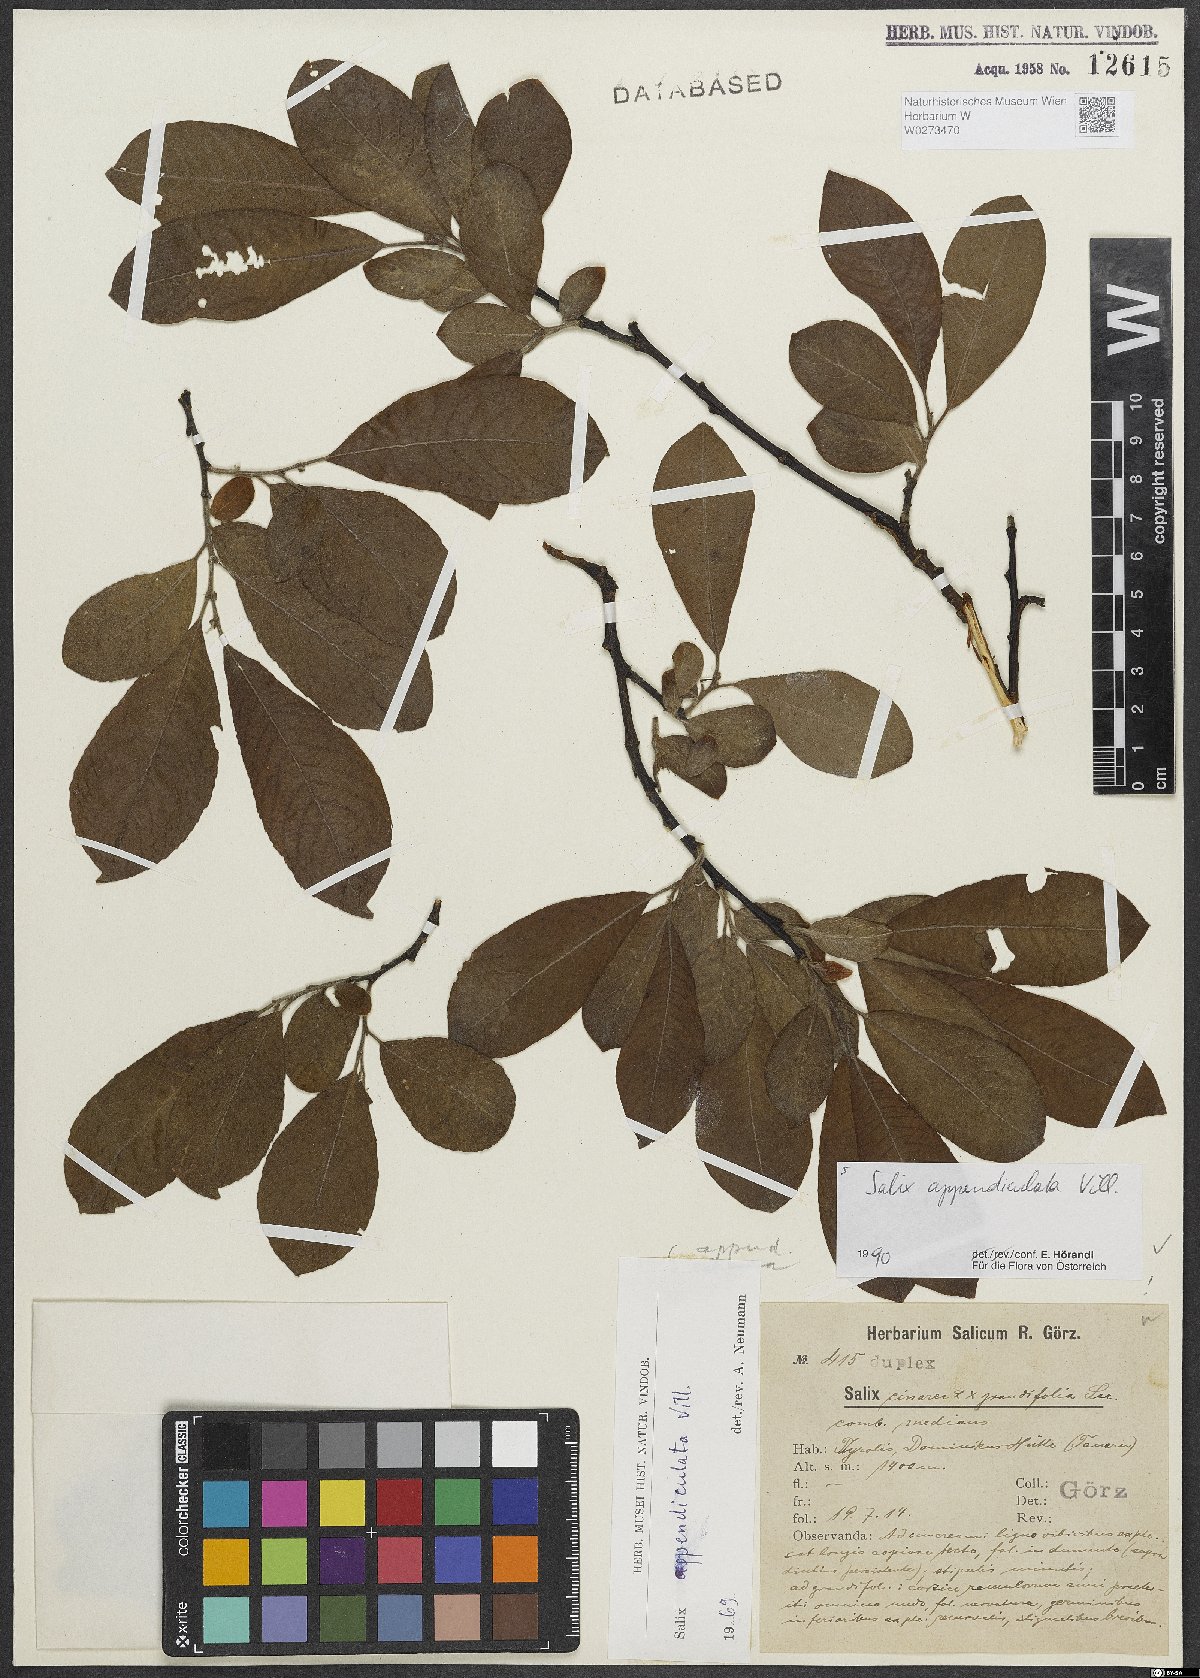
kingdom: Plantae
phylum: Tracheophyta
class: Magnoliopsida
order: Malpighiales
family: Salicaceae
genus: Salix
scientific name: Salix appendiculata
